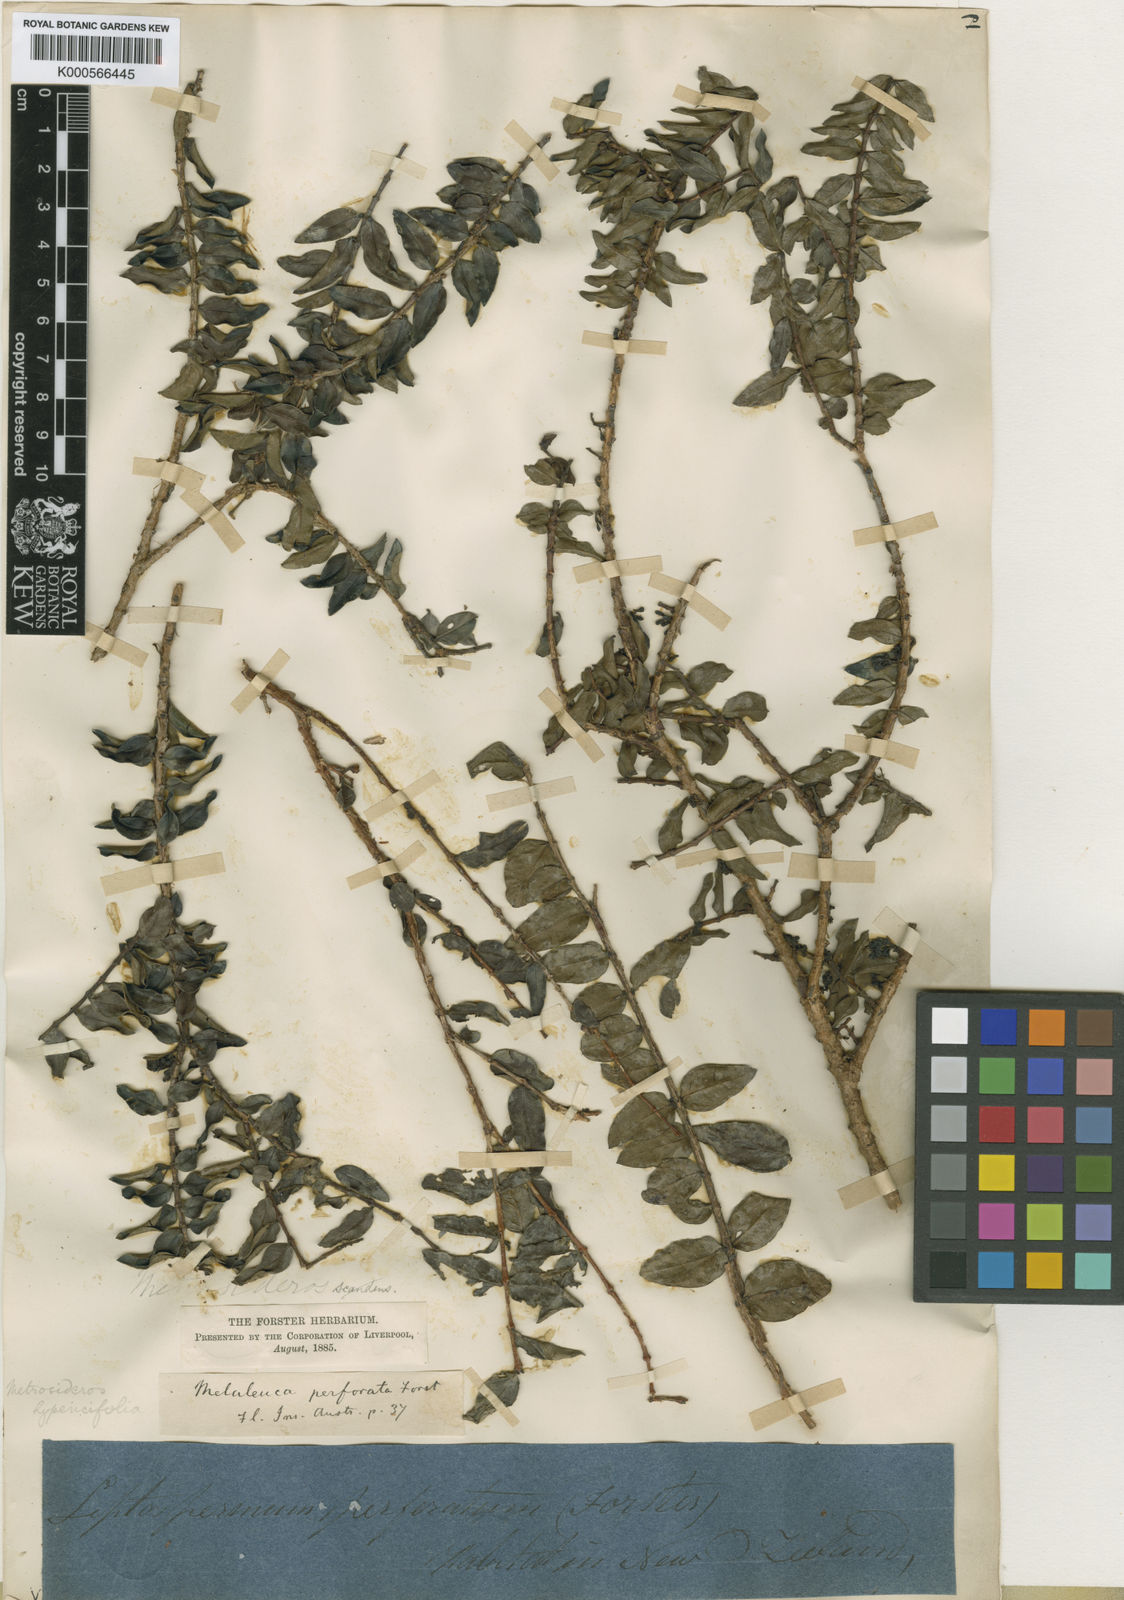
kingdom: Plantae
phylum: Tracheophyta
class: Magnoliopsida
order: Myrtales
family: Myrtaceae
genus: Metrosideros
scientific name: Metrosideros perforata
